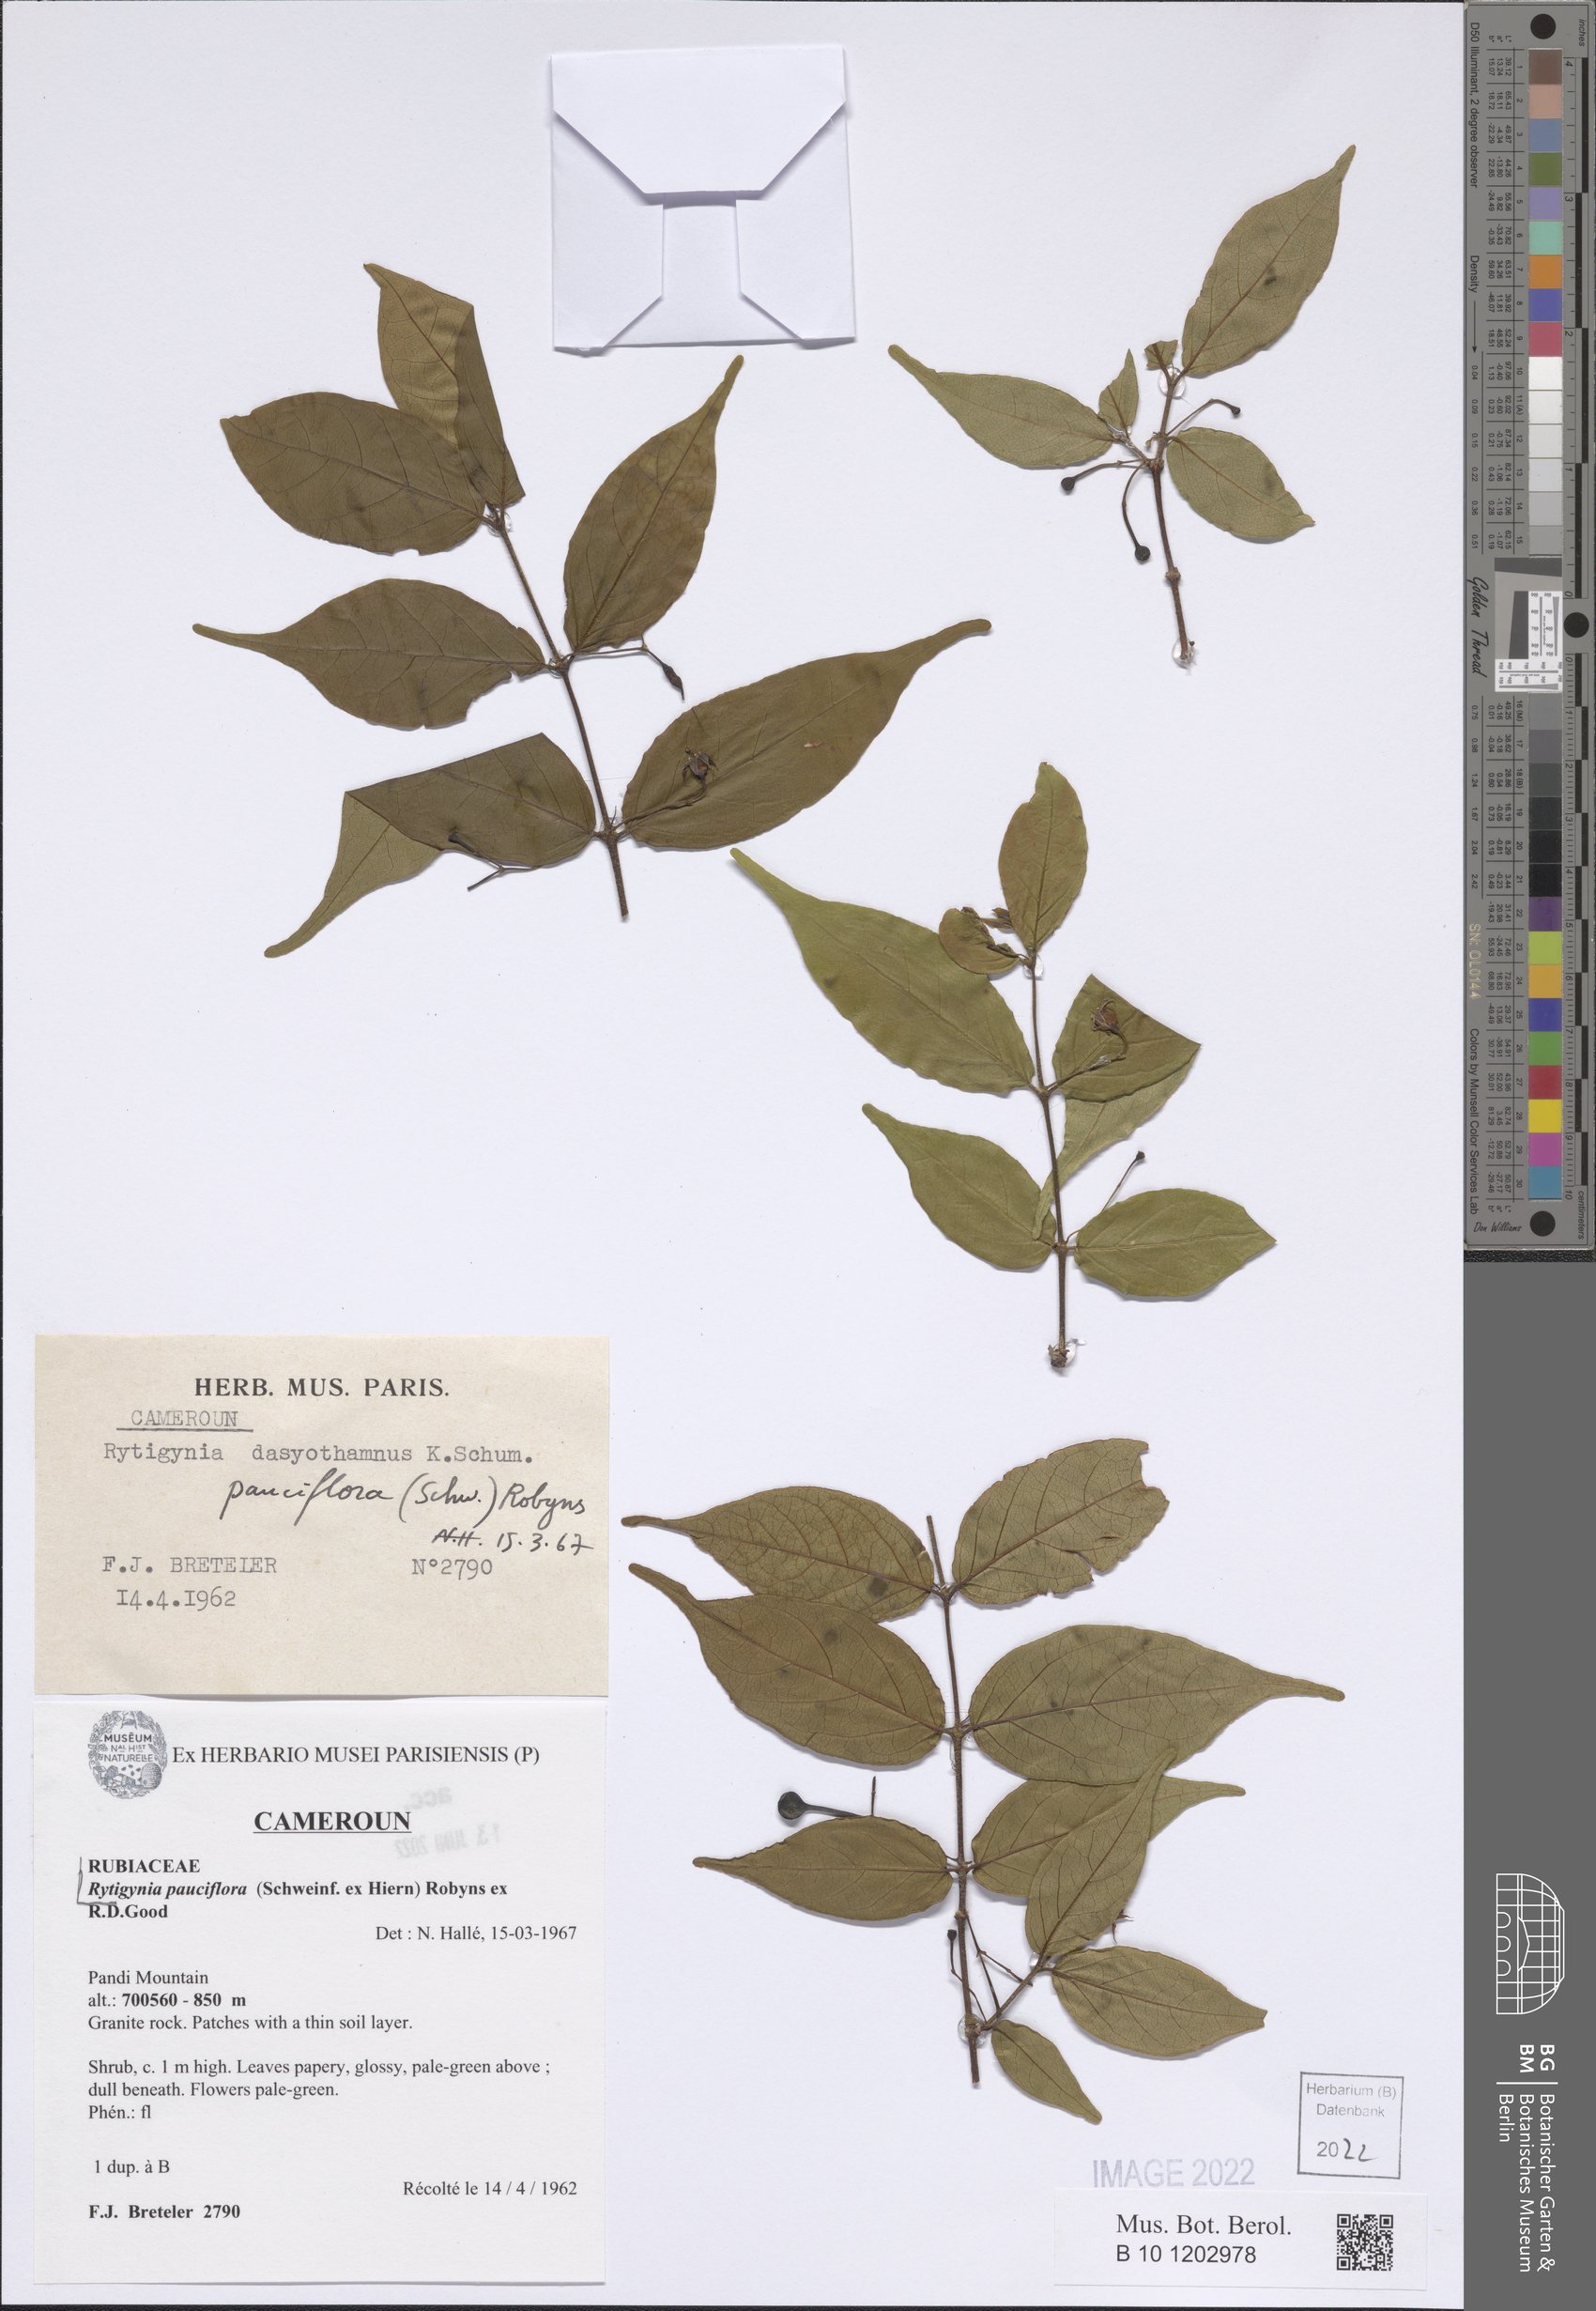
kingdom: Plantae
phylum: Tracheophyta
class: Magnoliopsida
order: Gentianales
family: Rubiaceae
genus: Rytigynia
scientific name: Rytigynia pauciflora
